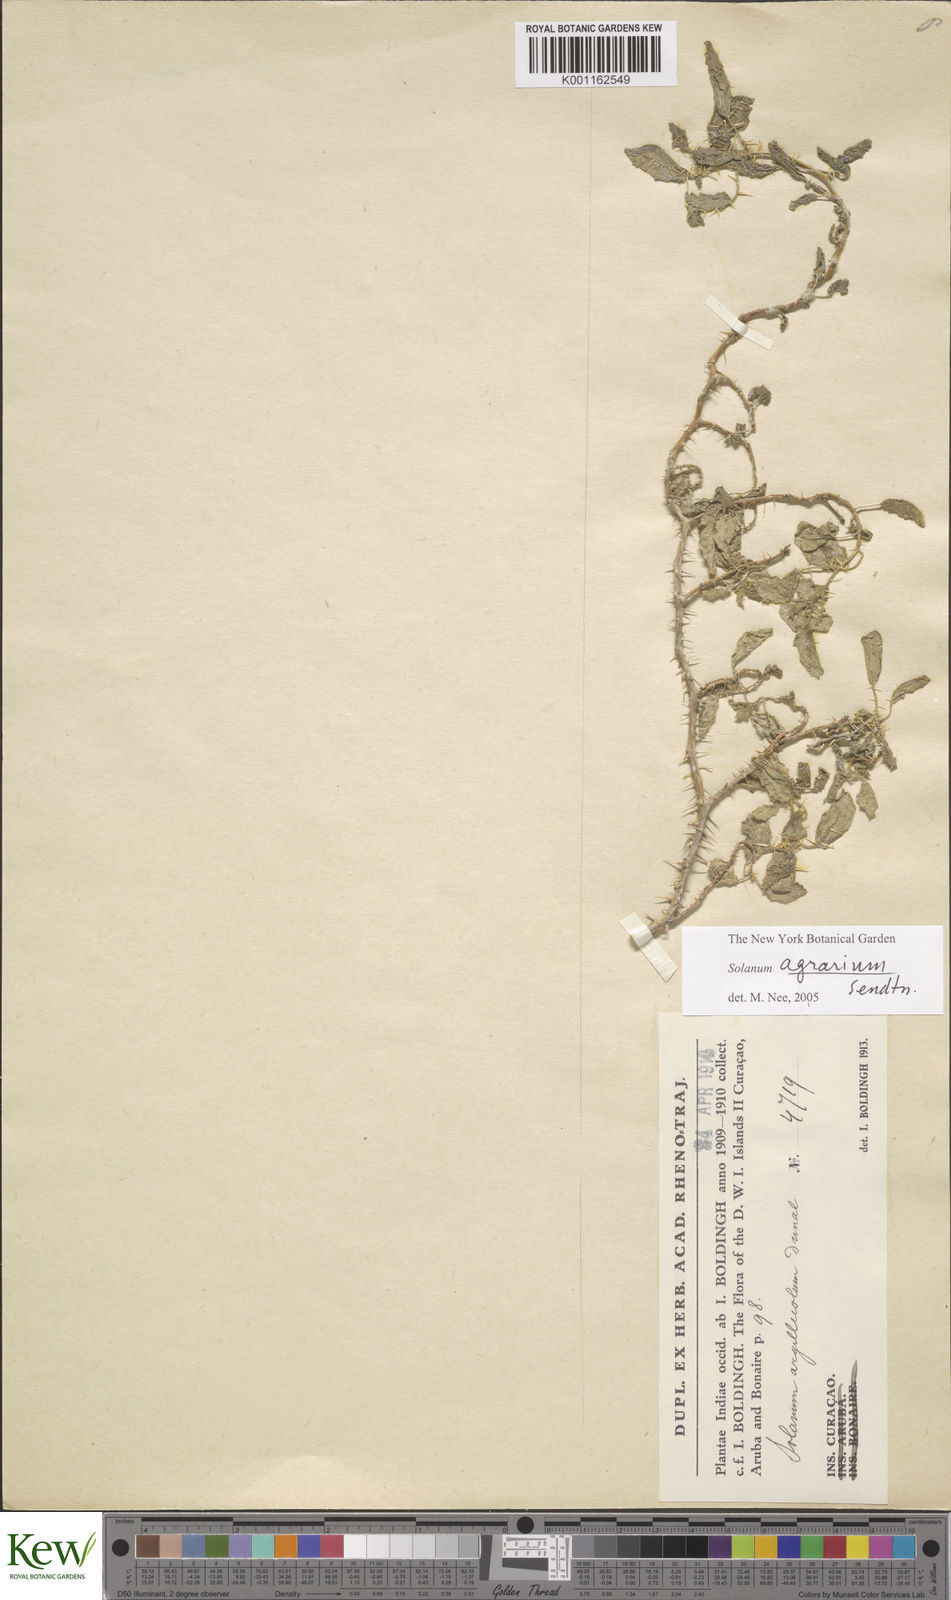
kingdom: Plantae
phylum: Tracheophyta
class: Magnoliopsida
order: Solanales
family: Solanaceae
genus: Solanum
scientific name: Solanum agrarium
